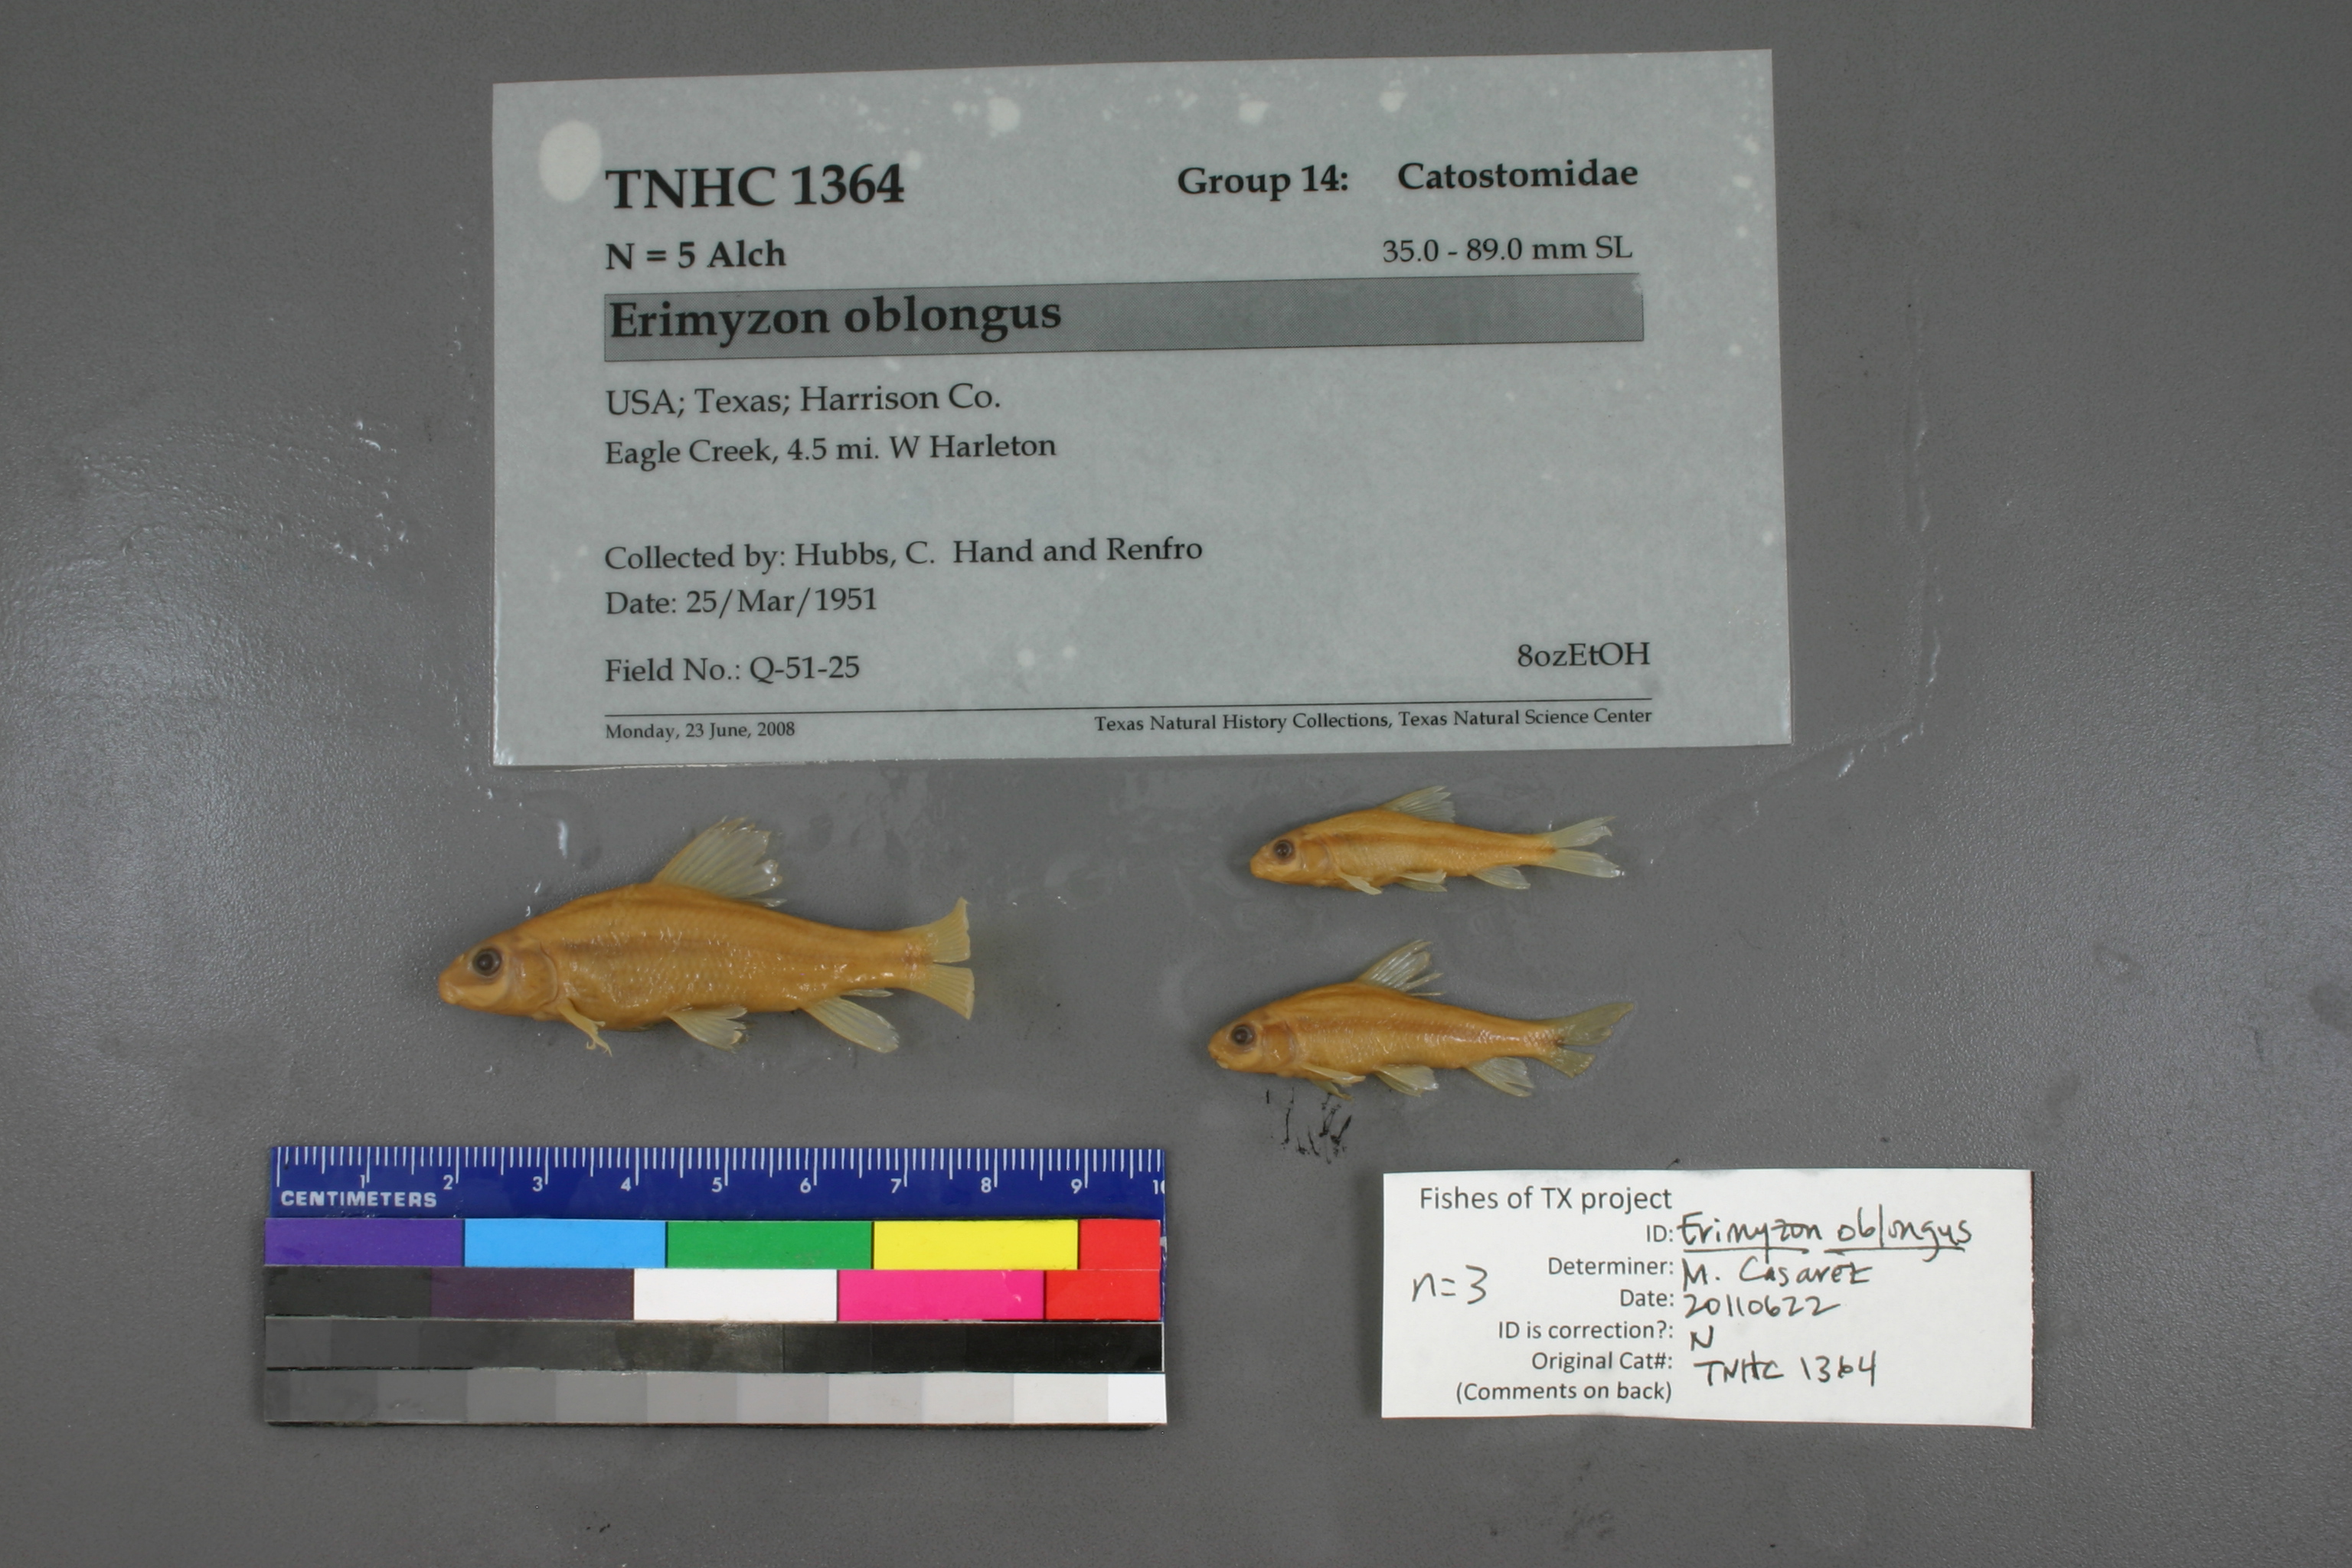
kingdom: Animalia
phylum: Chordata
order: Cypriniformes
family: Catostomidae
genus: Erimyzon
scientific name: Erimyzon oblongus
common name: Eastern creek chubsucker
